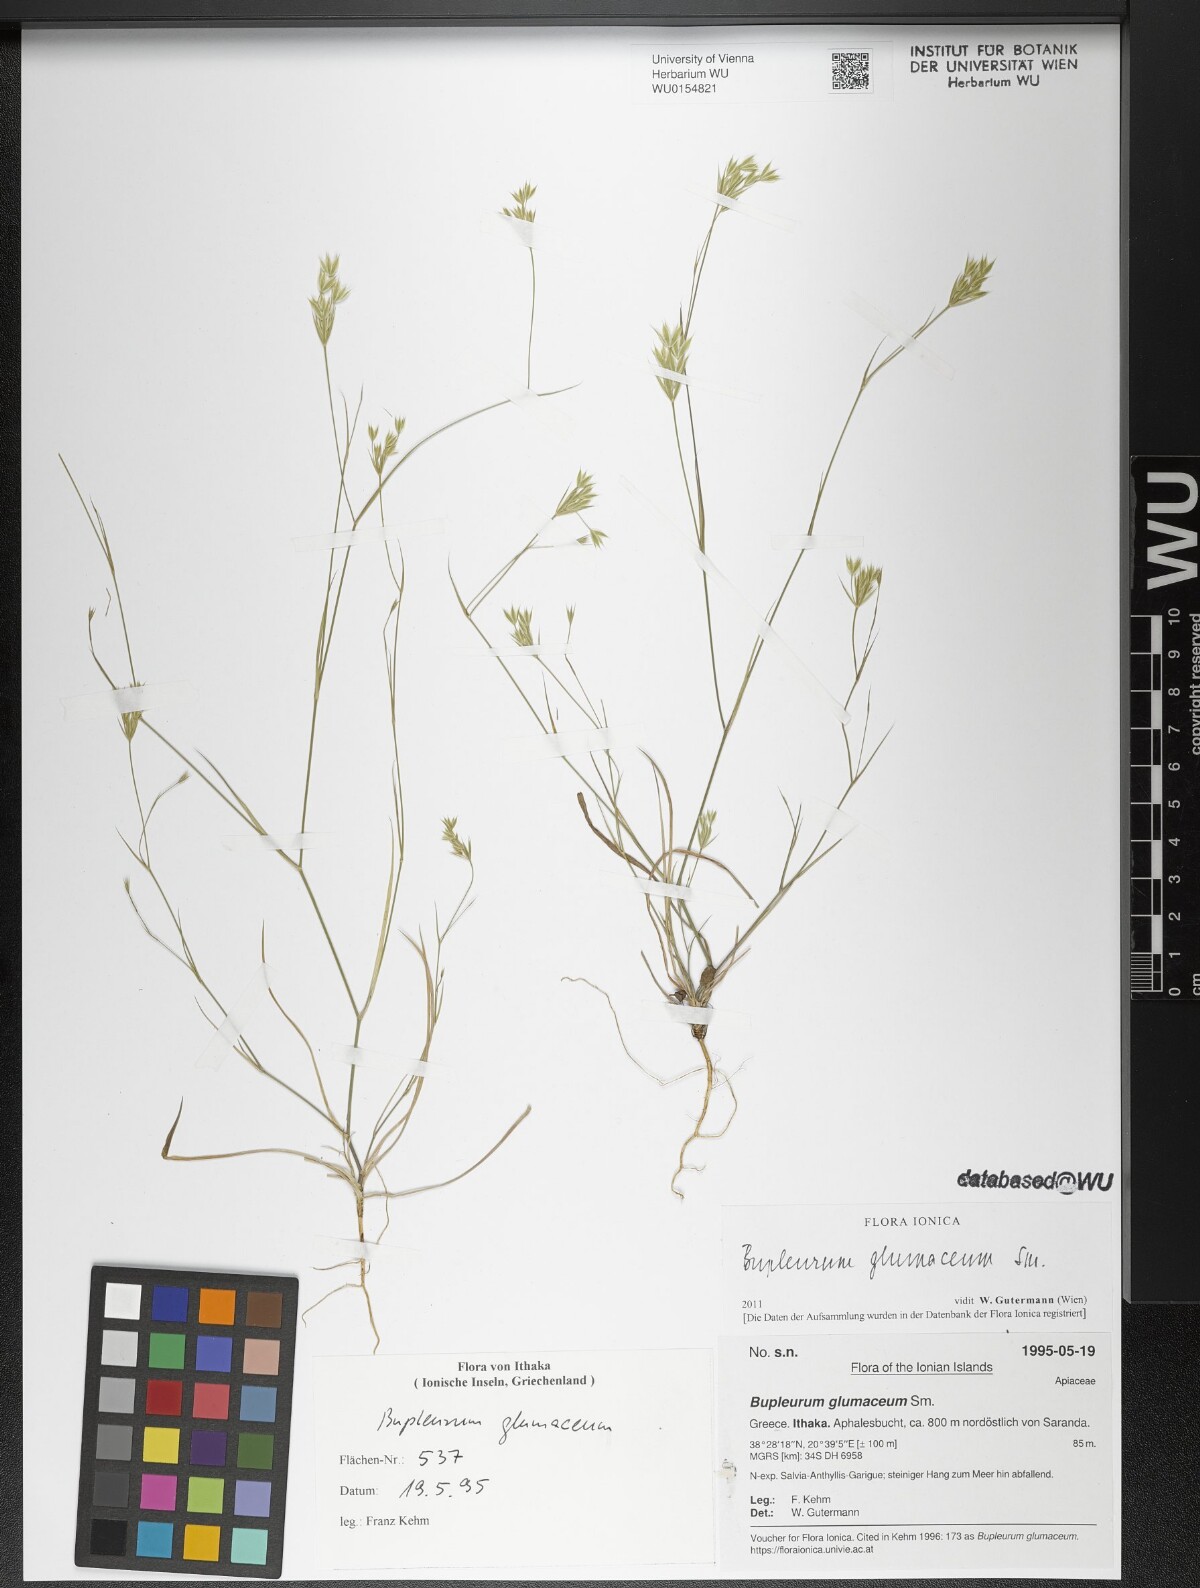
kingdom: Plantae
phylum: Tracheophyta
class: Magnoliopsida
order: Apiales
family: Apiaceae
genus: Bupleurum
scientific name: Bupleurum glumaceum
